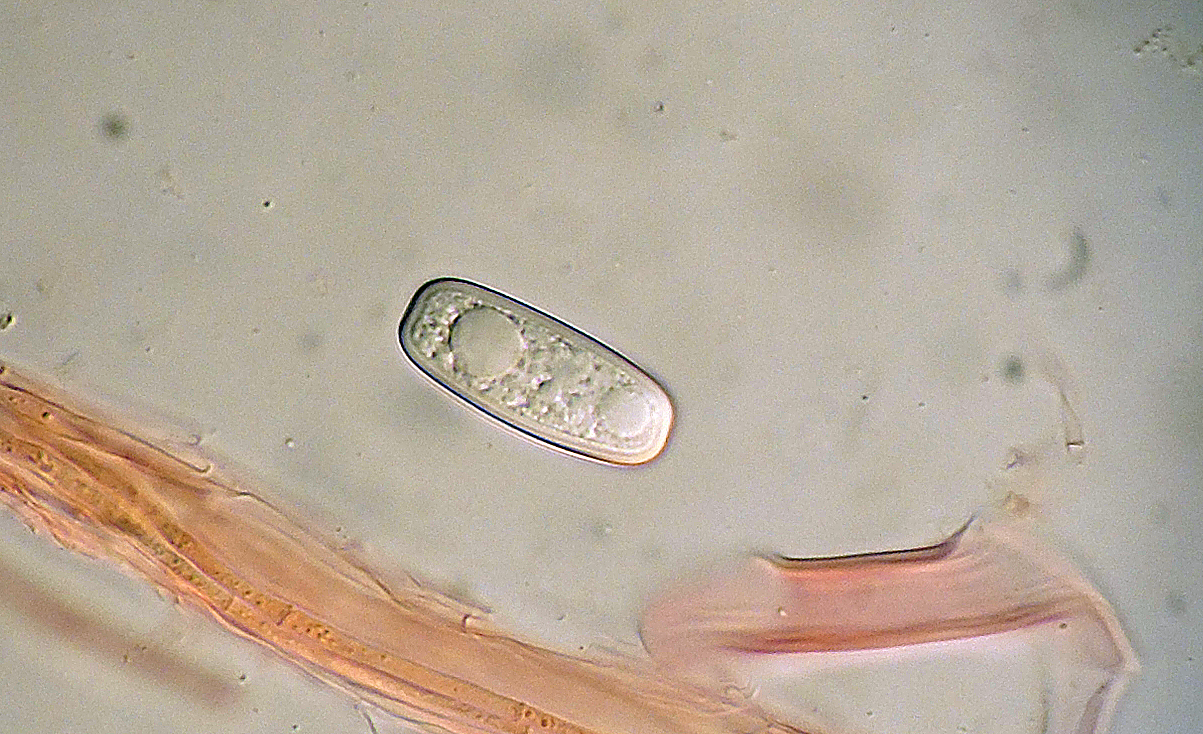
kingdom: Fungi
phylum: Ascomycota
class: Pezizomycetes
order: Pezizales
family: Sarcoscyphaceae
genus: Sarcoscypha
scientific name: Sarcoscypha austriaca
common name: krølhåret pragtbæger
